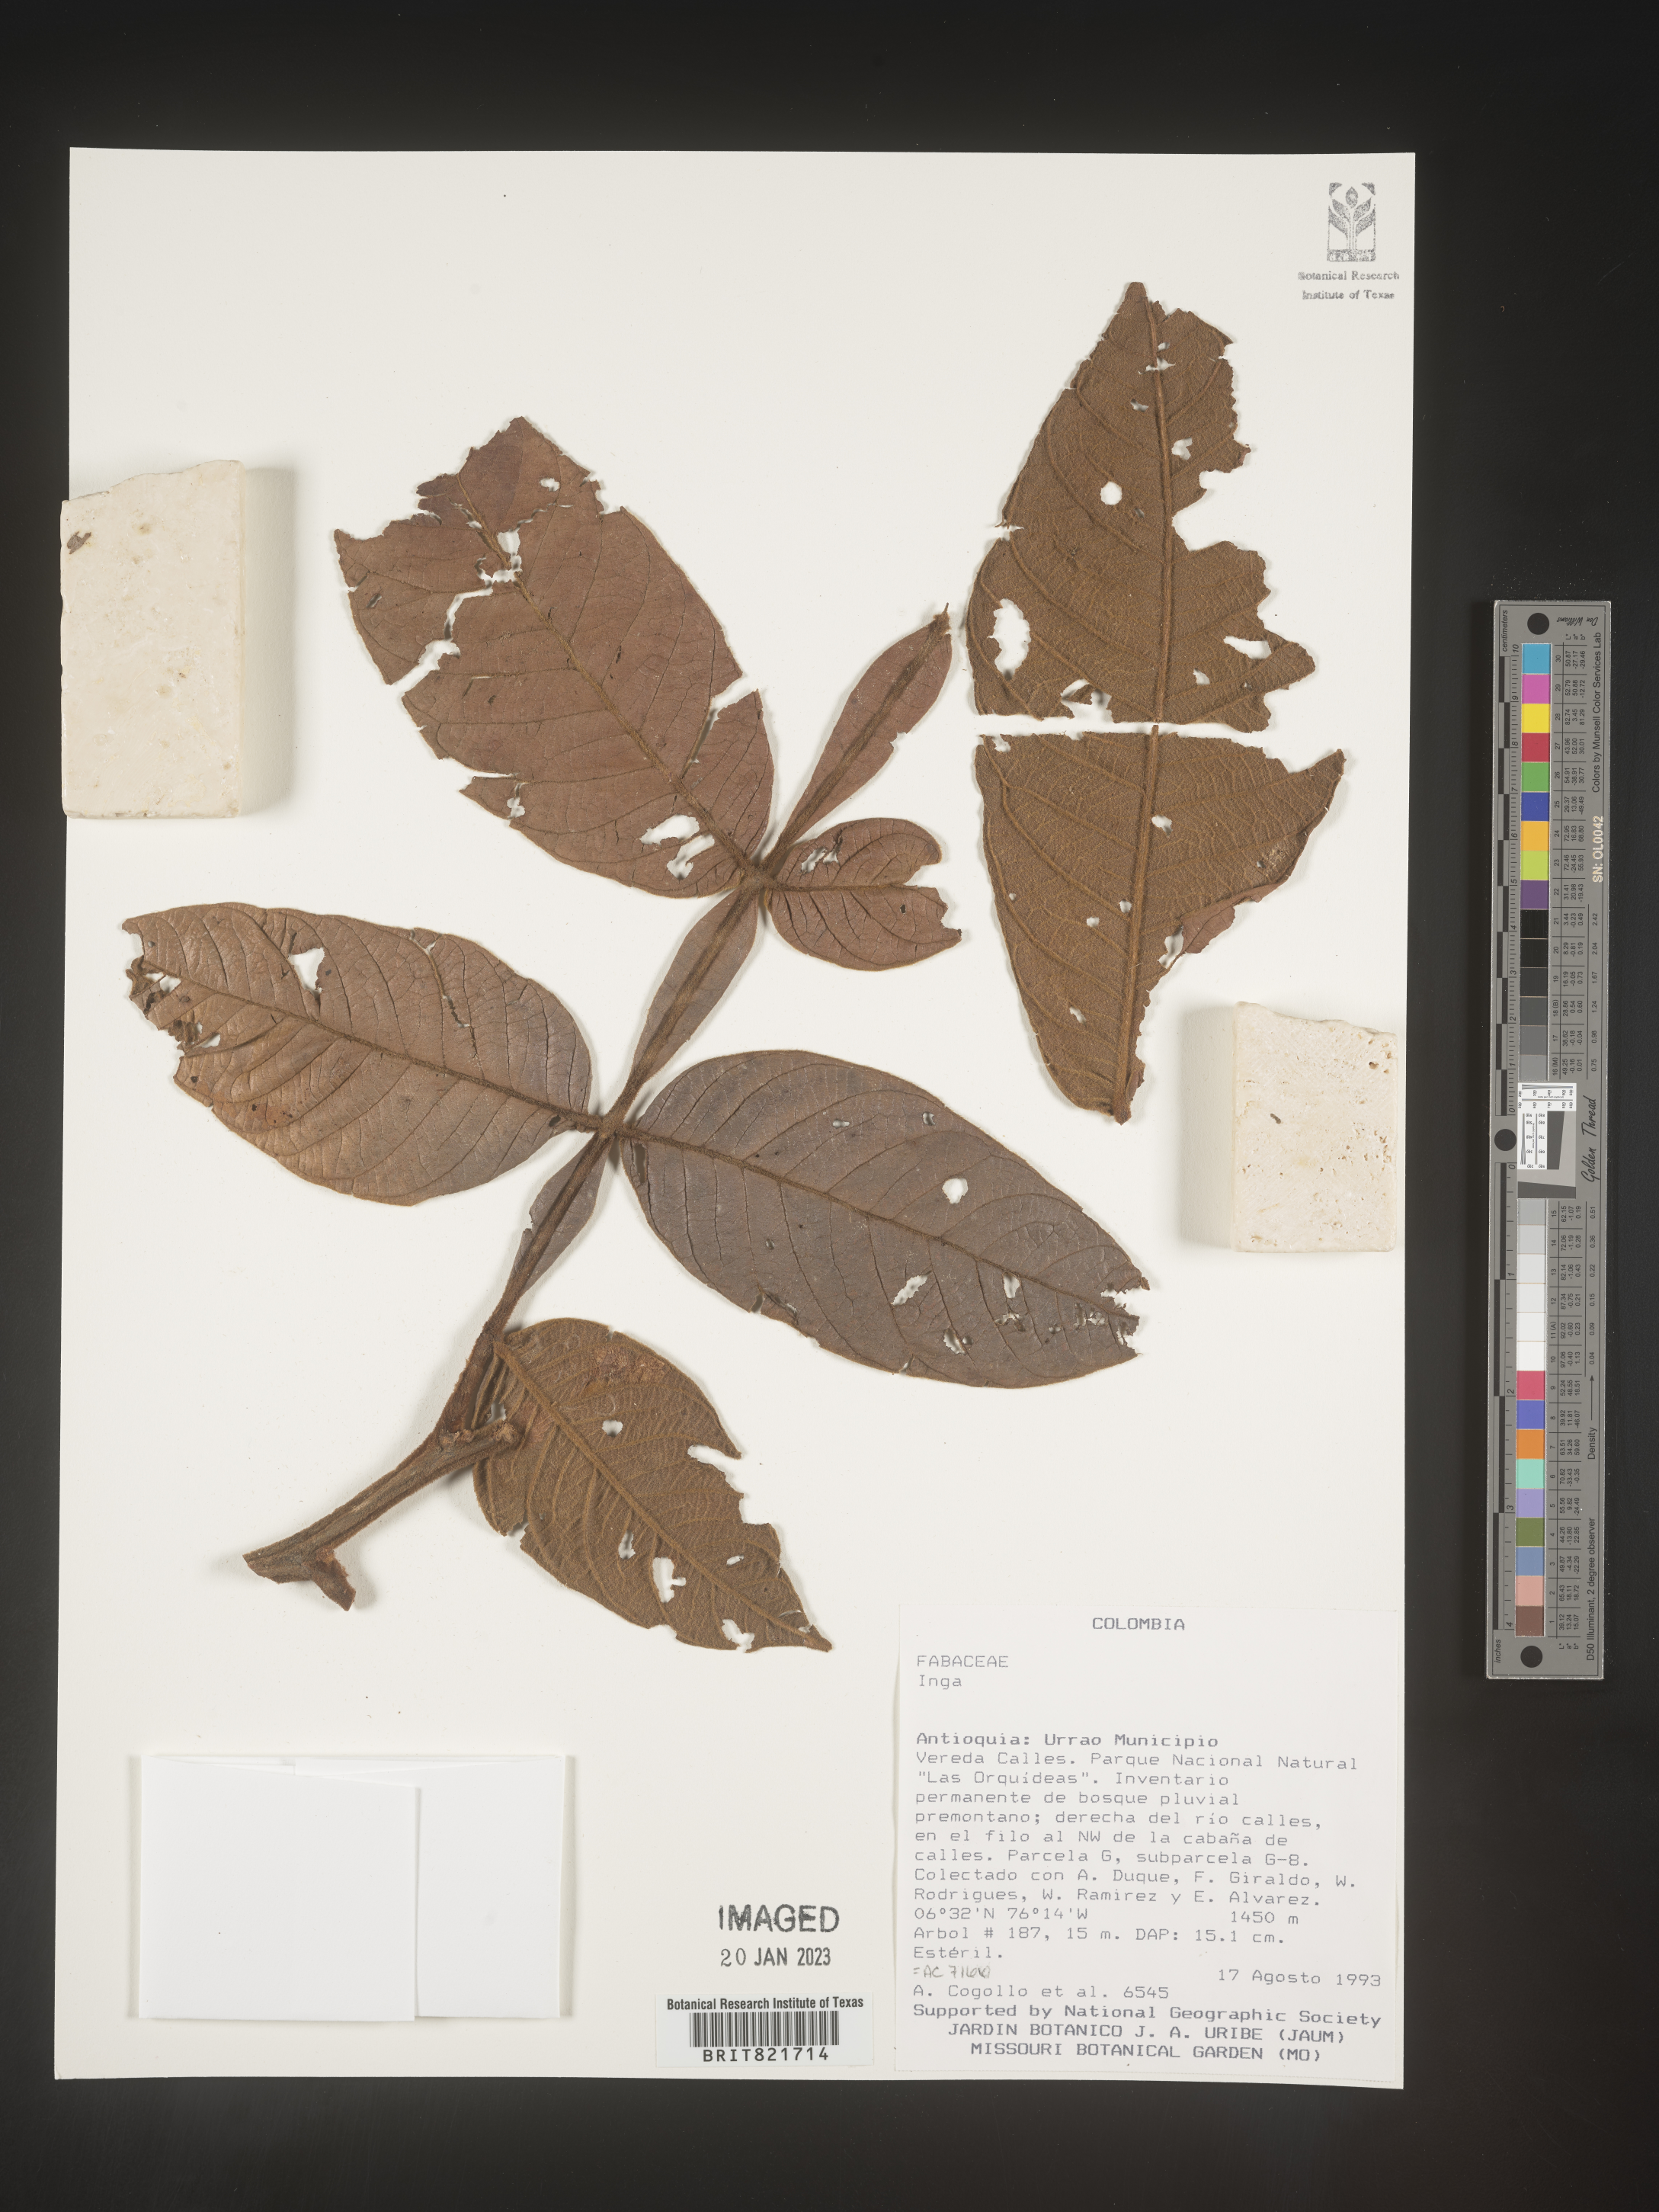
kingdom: Plantae
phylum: Tracheophyta
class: Magnoliopsida
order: Fabales
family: Fabaceae
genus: Inga
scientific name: Inga
